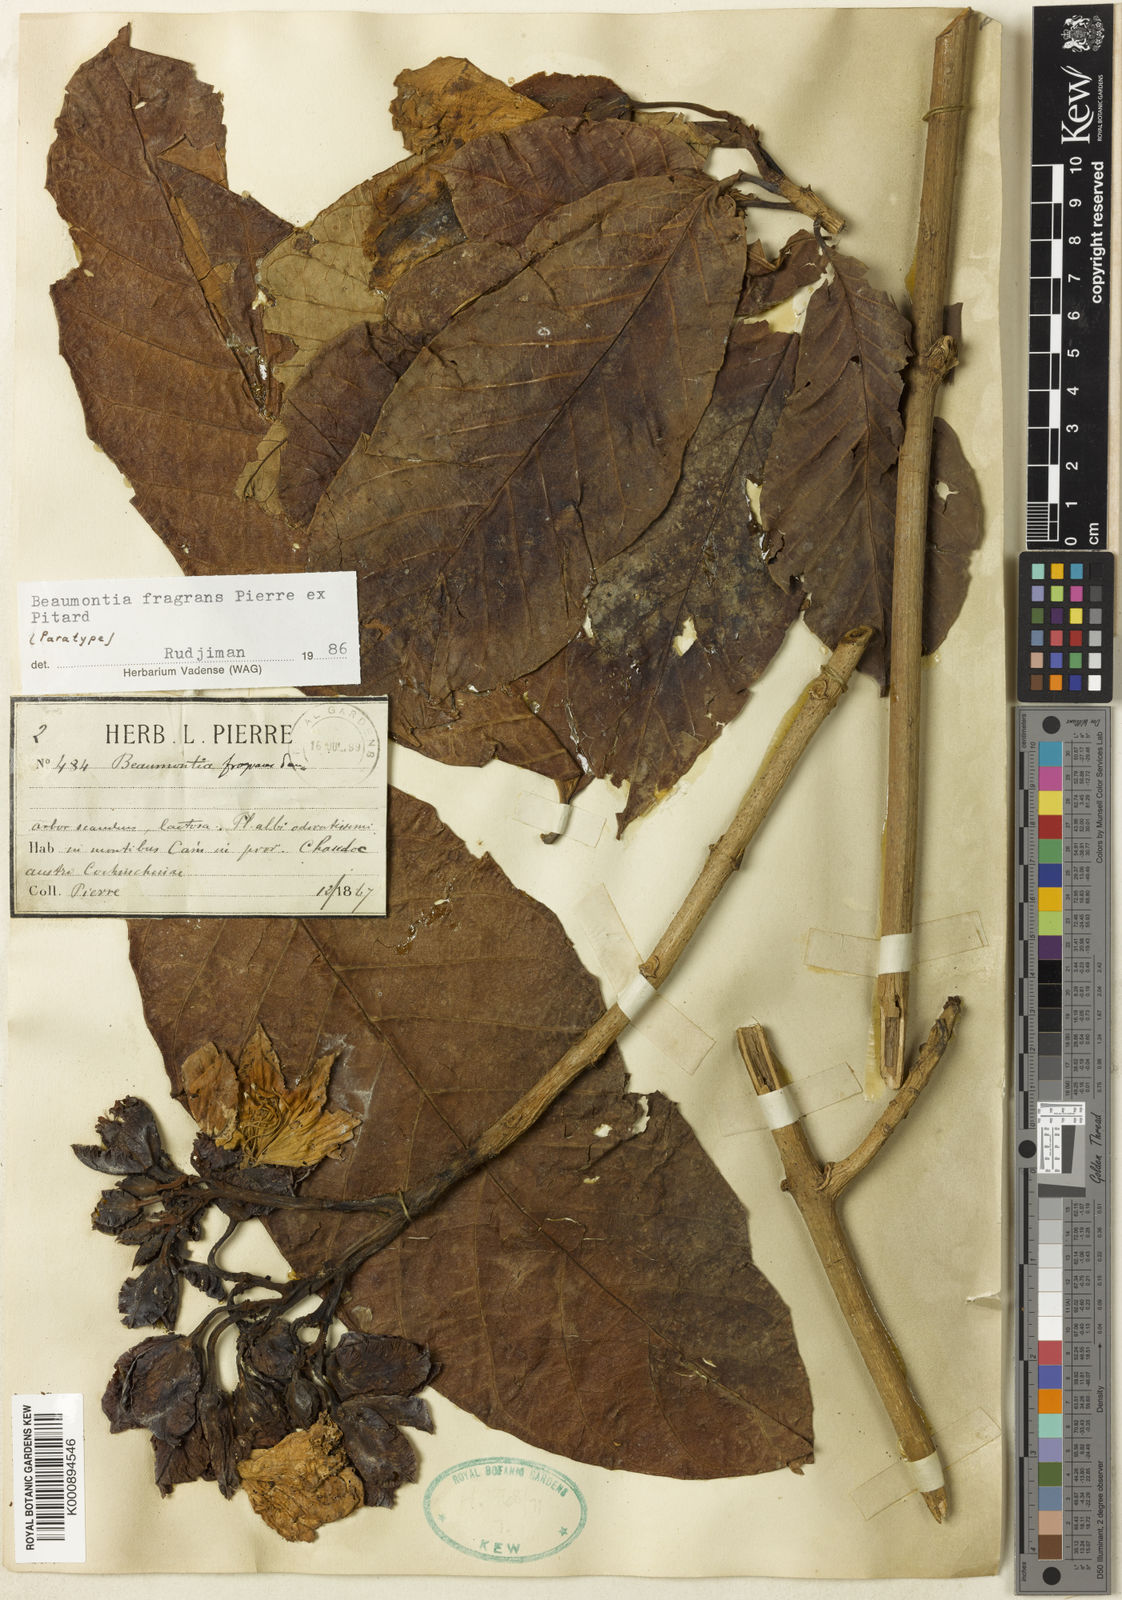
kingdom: Plantae
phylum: Tracheophyta
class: Magnoliopsida
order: Gentianales
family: Apocynaceae
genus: Beaumontia
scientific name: Beaumontia murtonii
